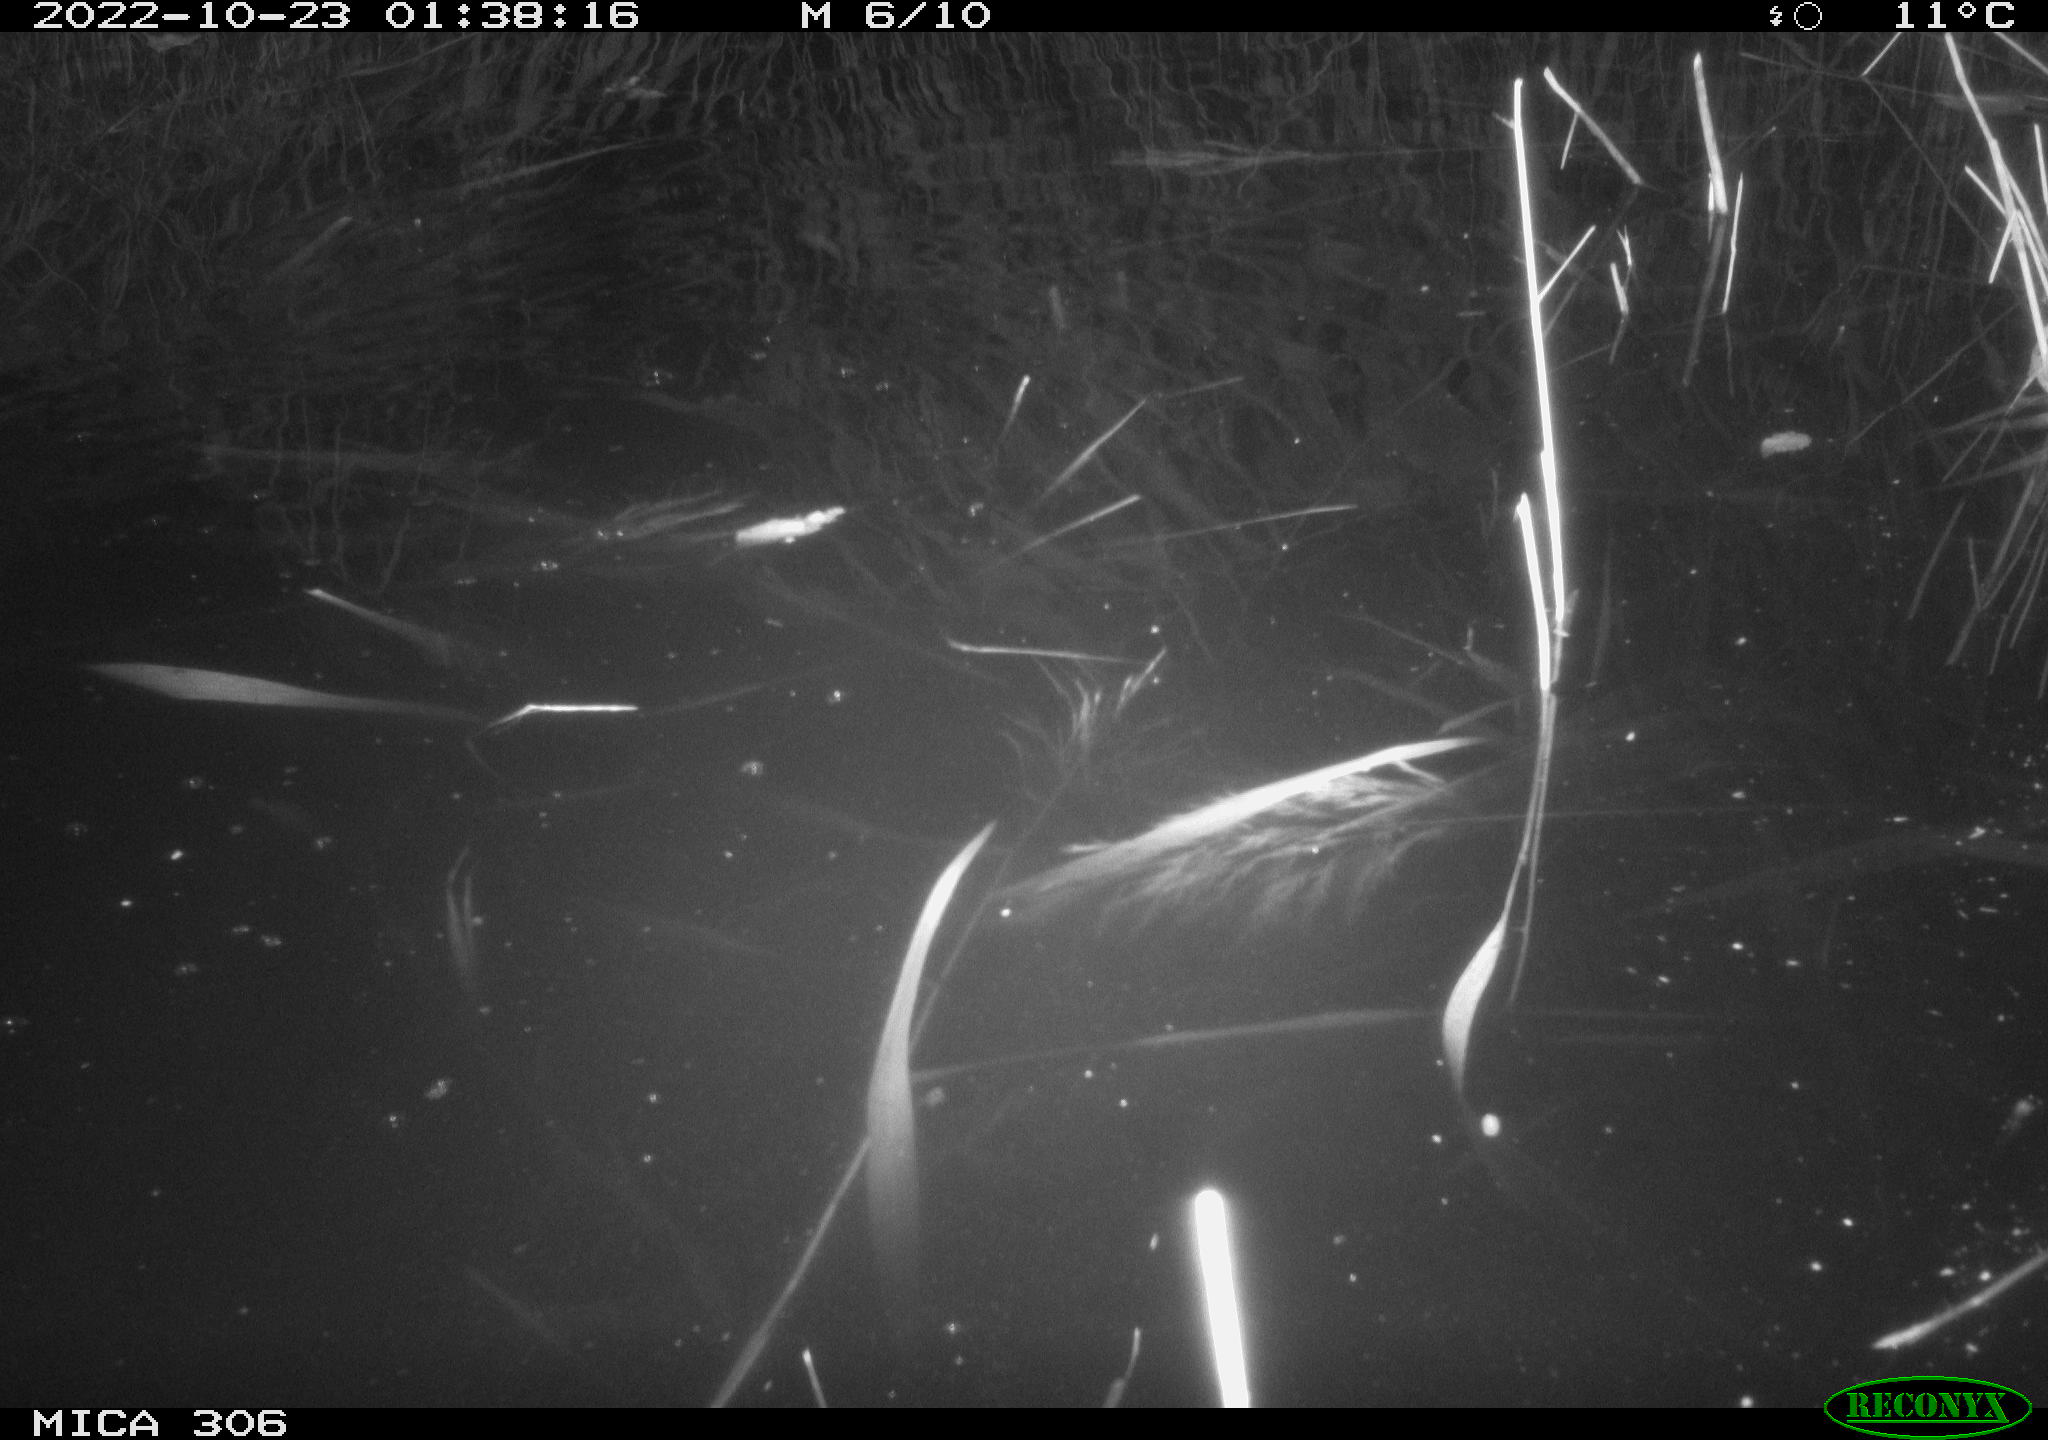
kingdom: Animalia
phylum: Chordata
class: Mammalia
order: Rodentia
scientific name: Rodentia
